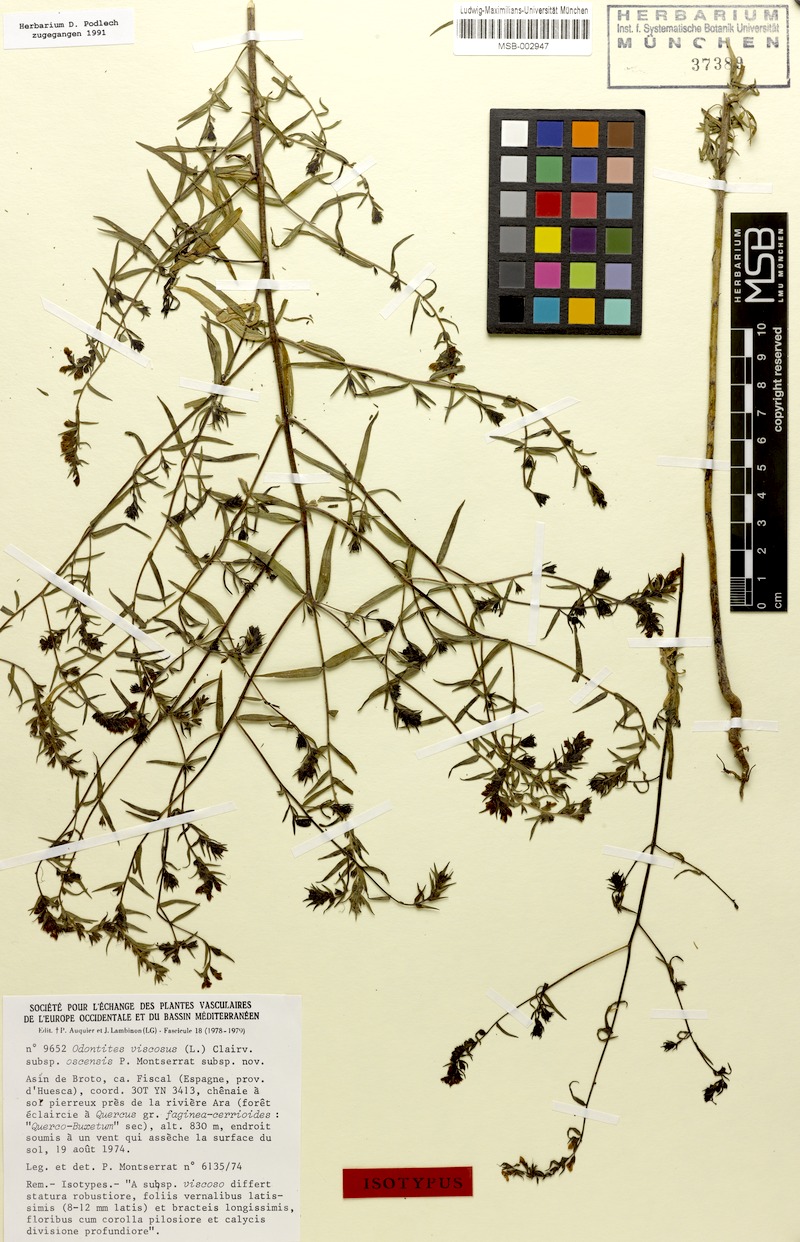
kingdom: Plantae
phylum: Tracheophyta
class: Magnoliopsida
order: Lamiales
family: Orobanchaceae
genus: Odontites
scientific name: Odontites viscosus
